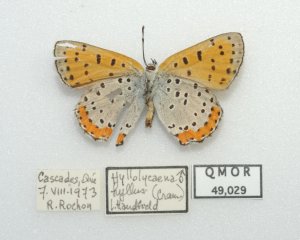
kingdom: Animalia
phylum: Arthropoda
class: Insecta
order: Lepidoptera
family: Sesiidae
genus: Sesia
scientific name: Sesia Lycaena hyllus
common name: Bronze Copper
